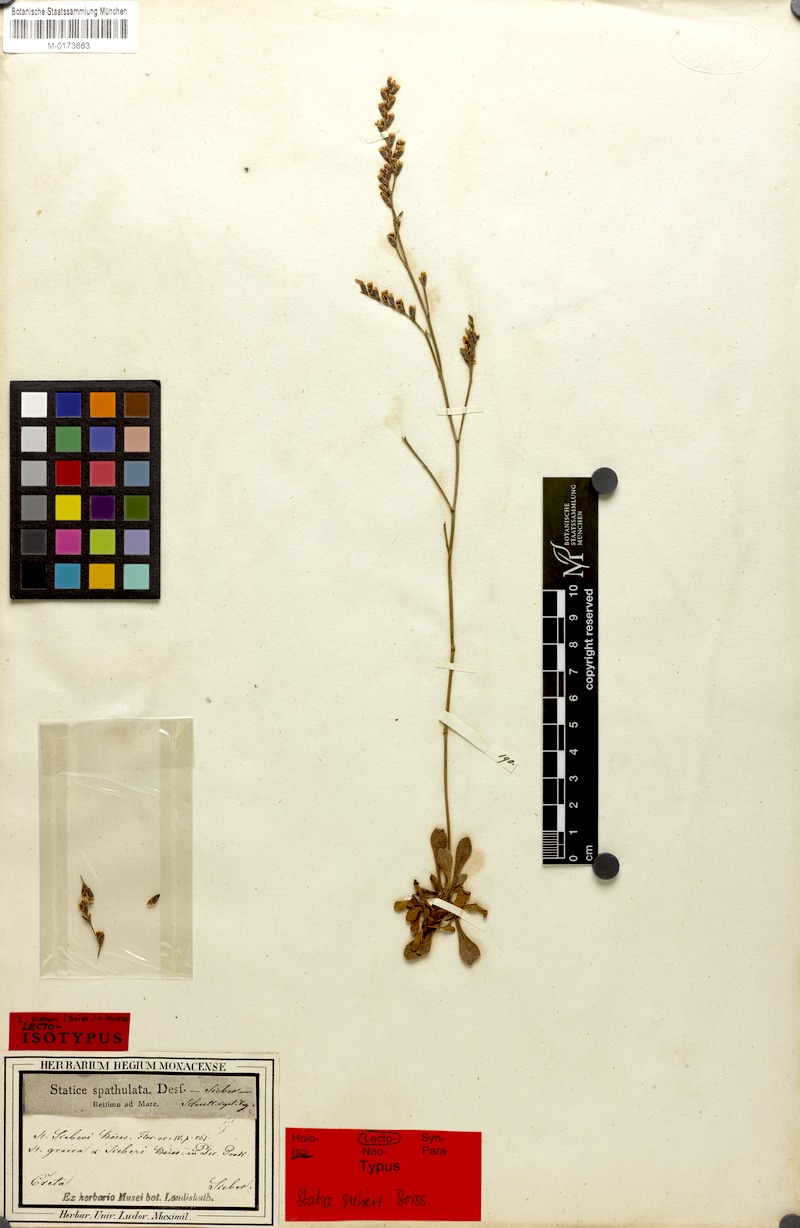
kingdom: Plantae
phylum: Tracheophyta
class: Magnoliopsida
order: Caryophyllales
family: Plumbaginaceae
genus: Limonium
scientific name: Limonium sieberi
